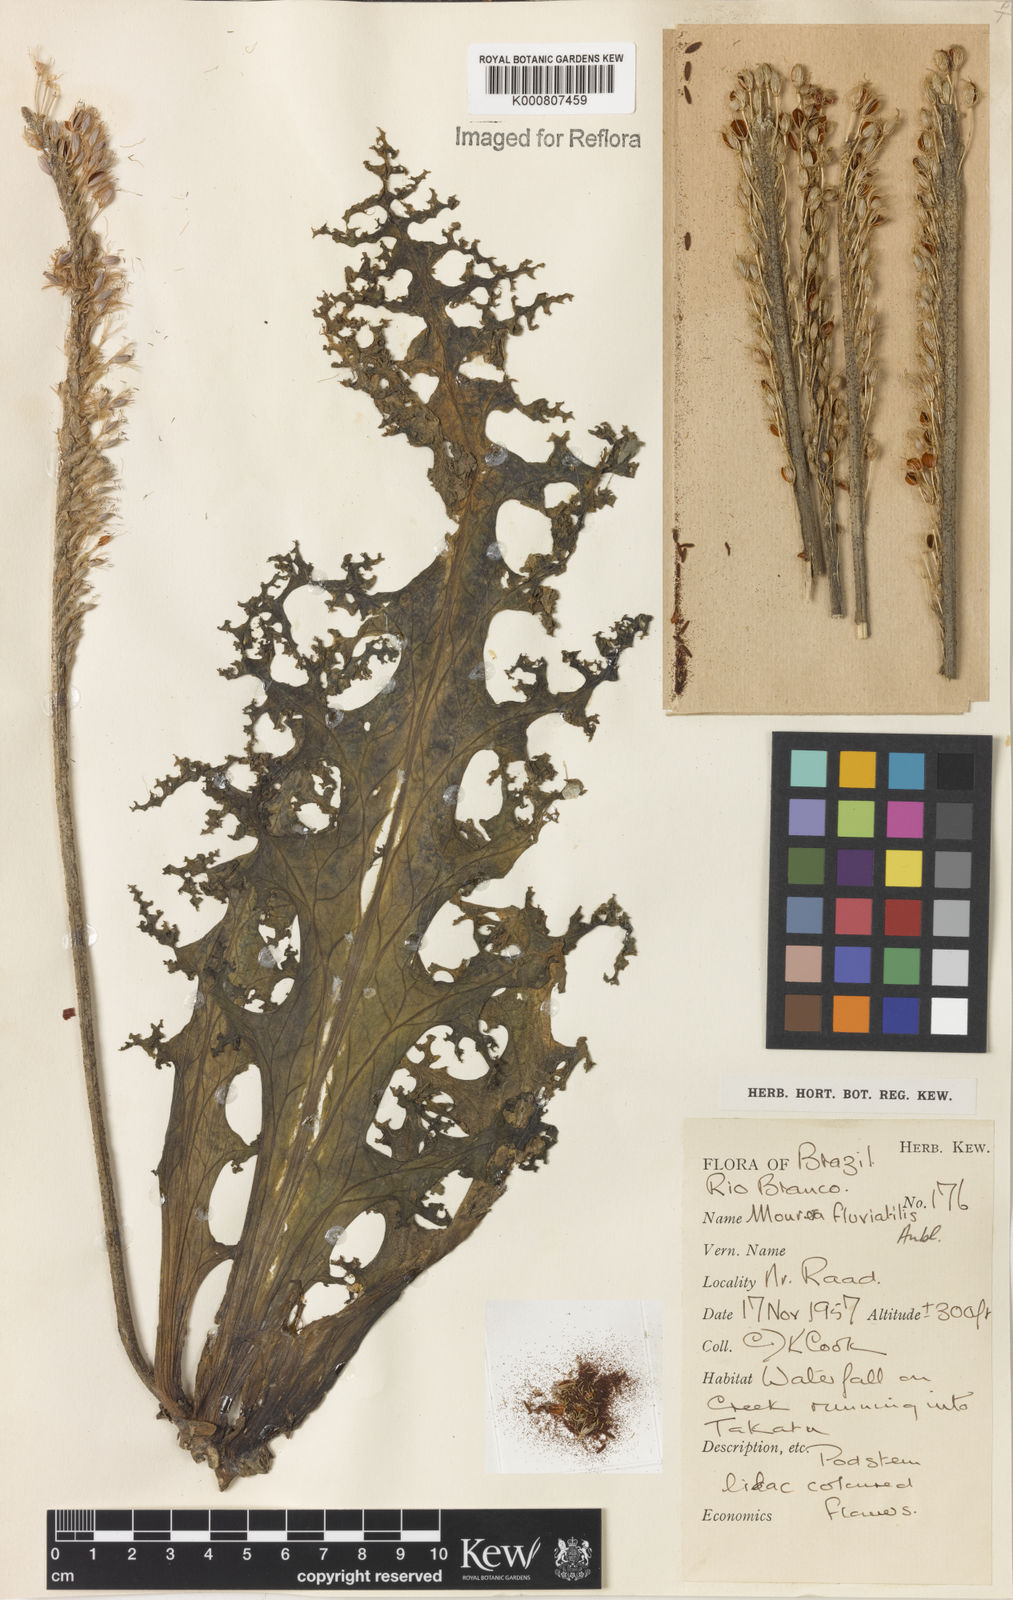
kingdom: Plantae
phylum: Tracheophyta
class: Magnoliopsida
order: Malpighiales
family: Podostemaceae
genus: Mourera
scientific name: Mourera fluviatilis
